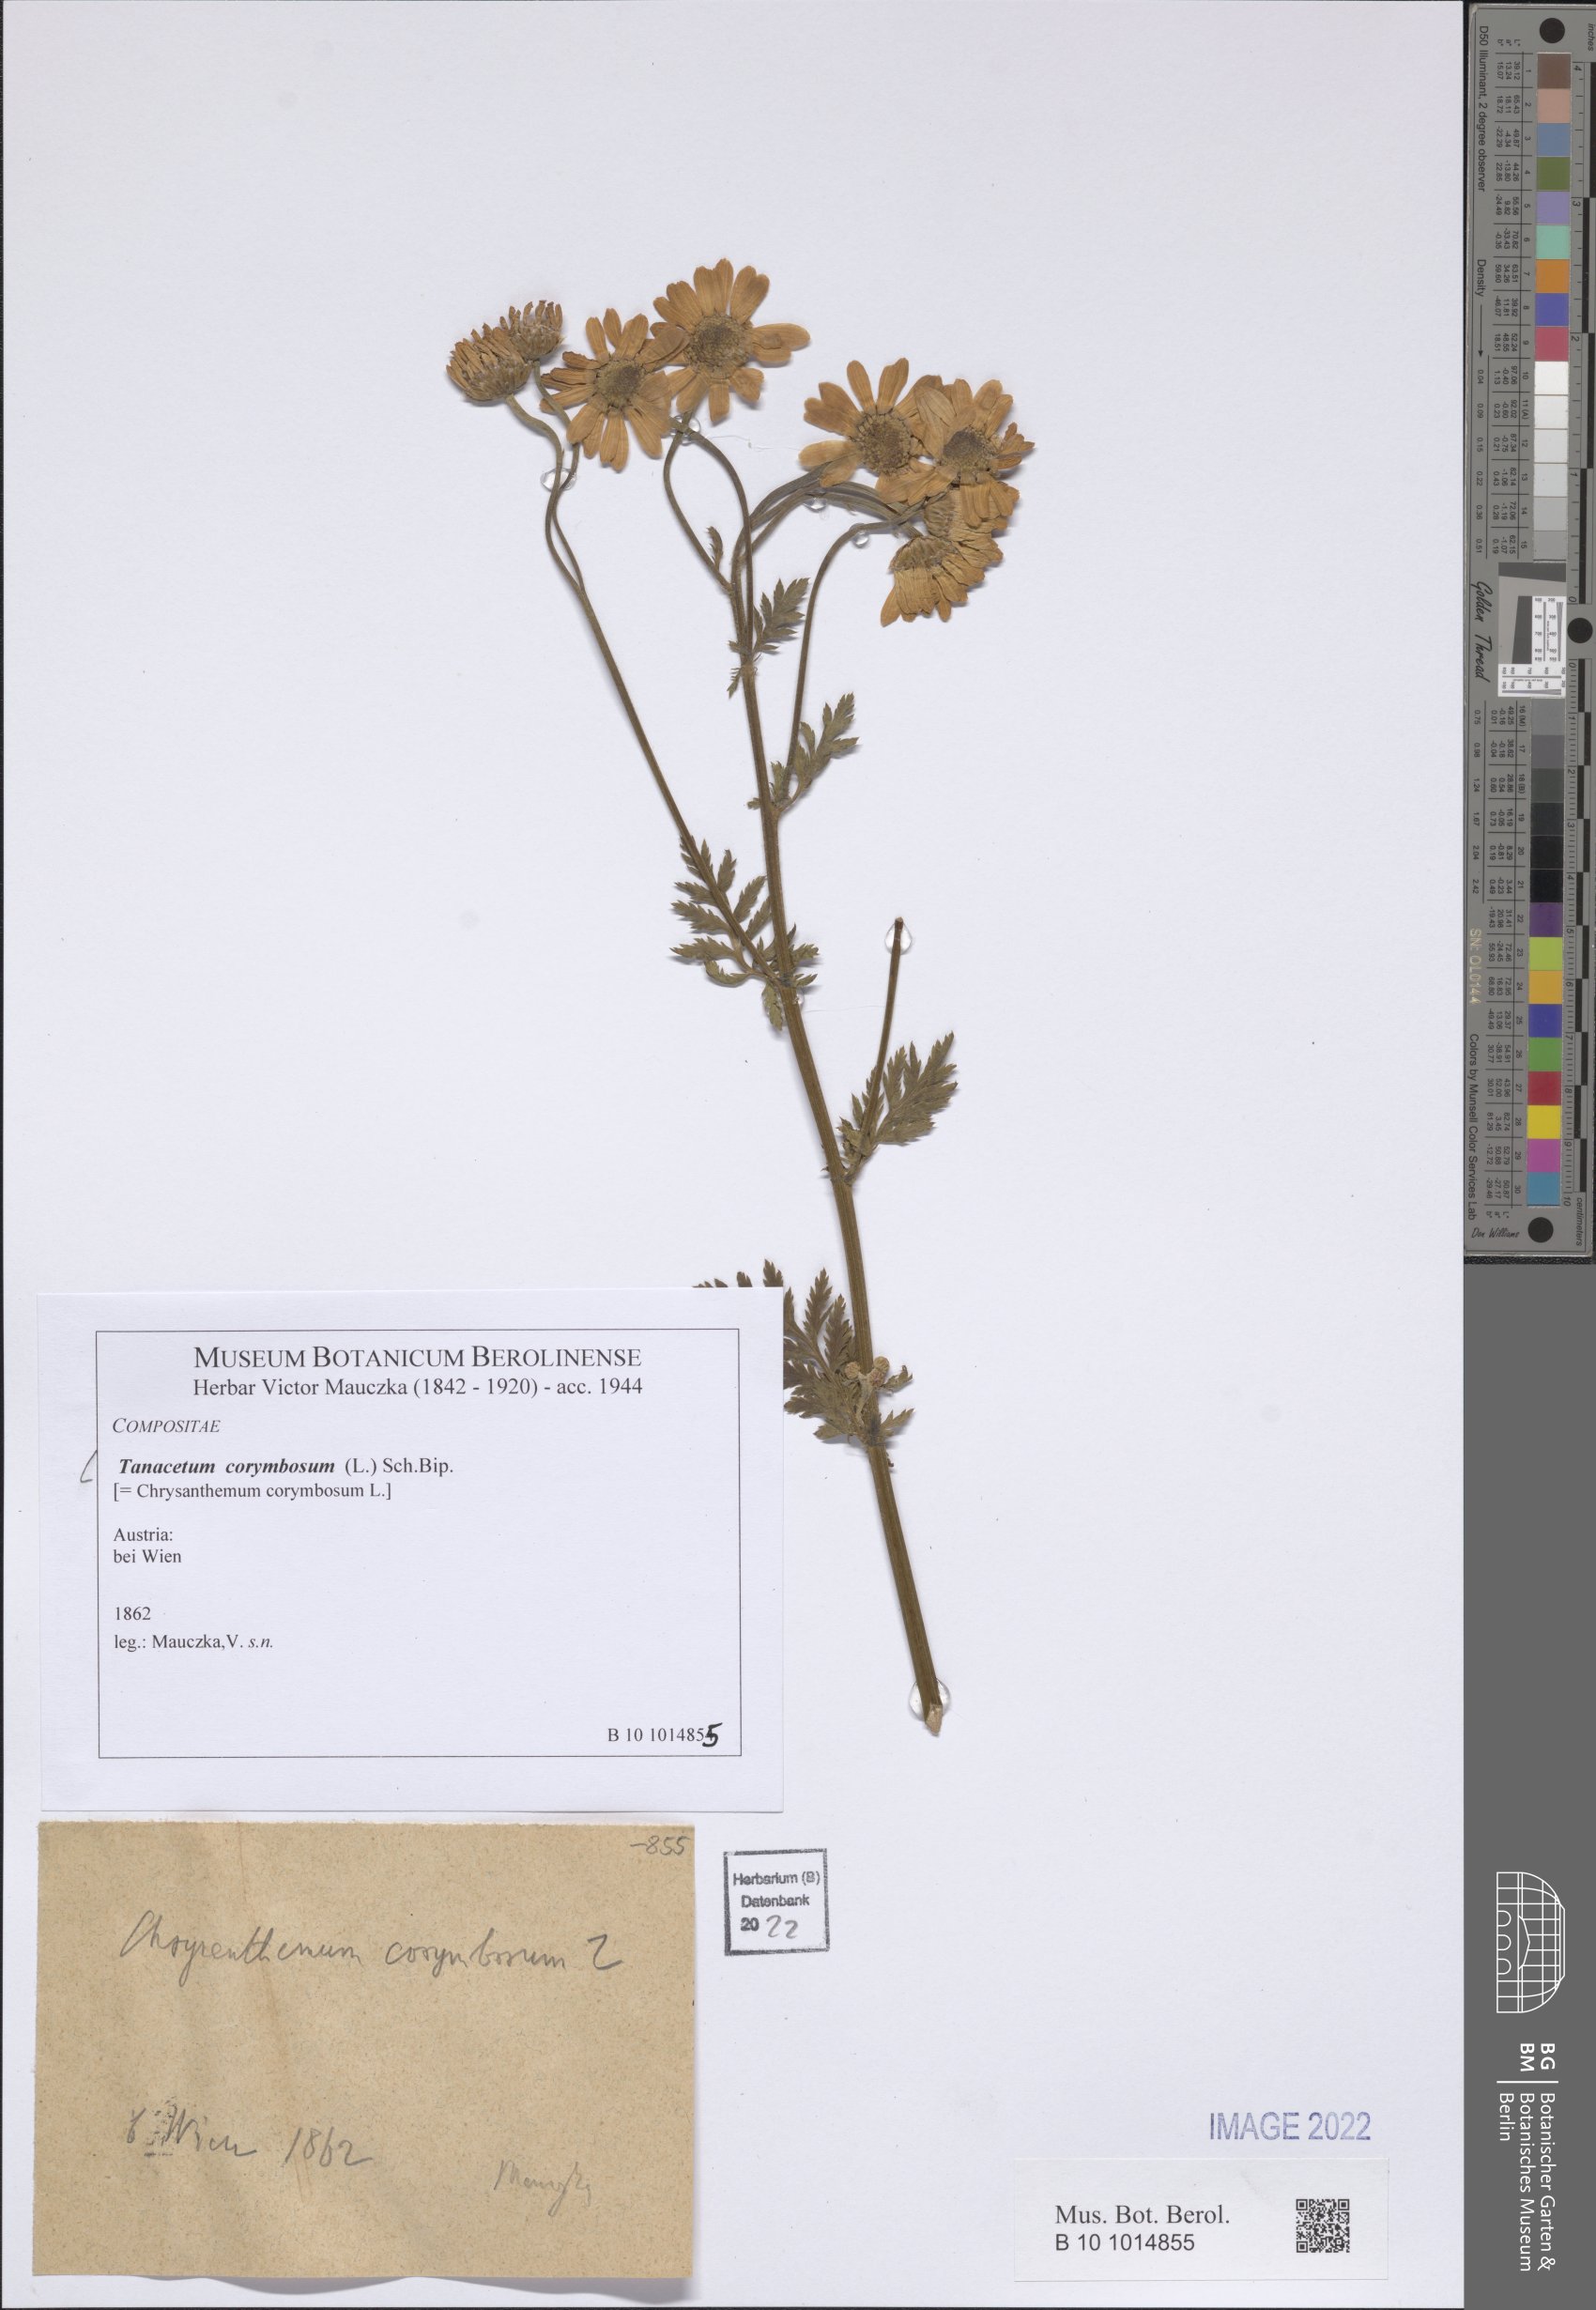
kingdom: Plantae
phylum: Tracheophyta
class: Magnoliopsida
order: Asterales
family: Asteraceae
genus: Tanacetum
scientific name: Tanacetum corymbosum
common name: Scentless feverfew
